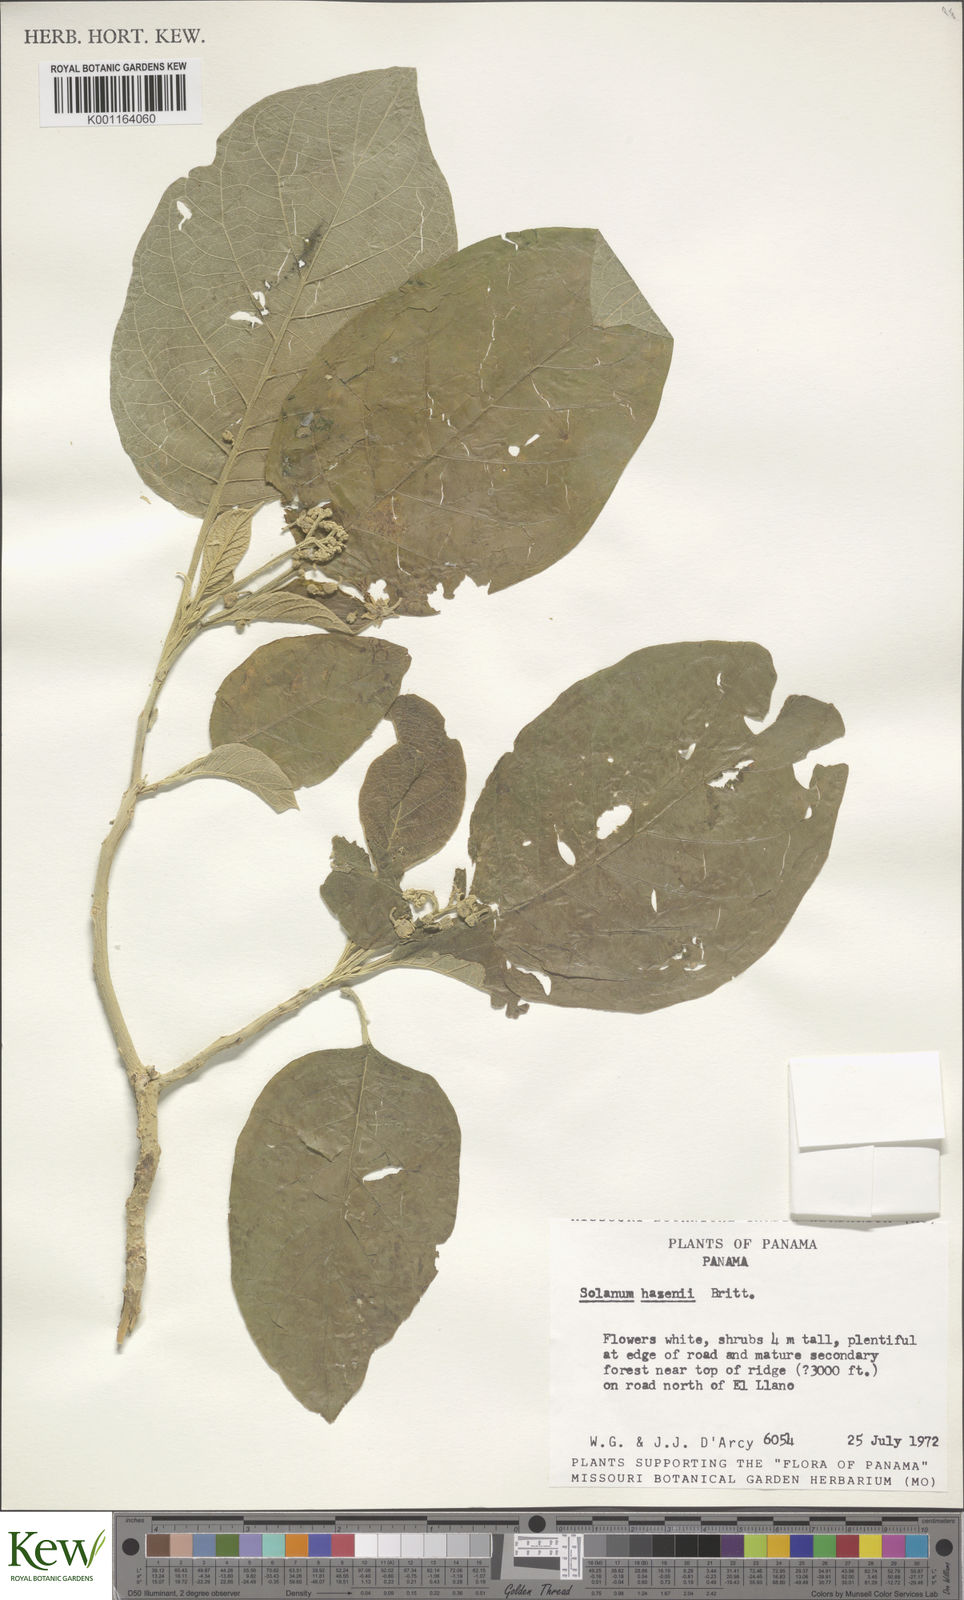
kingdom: Plantae
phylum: Tracheophyta
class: Magnoliopsida
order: Solanales
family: Solanaceae
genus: Solanum
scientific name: Solanum hazenii
